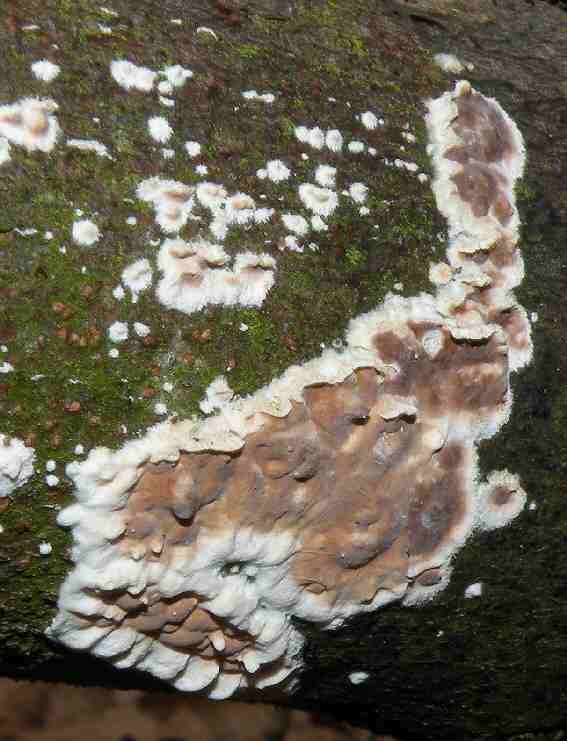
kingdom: Fungi
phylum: Basidiomycota
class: Agaricomycetes
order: Agaricales
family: Physalacriaceae
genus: Cylindrobasidium
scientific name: Cylindrobasidium evolvens
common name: sprækkehinde
